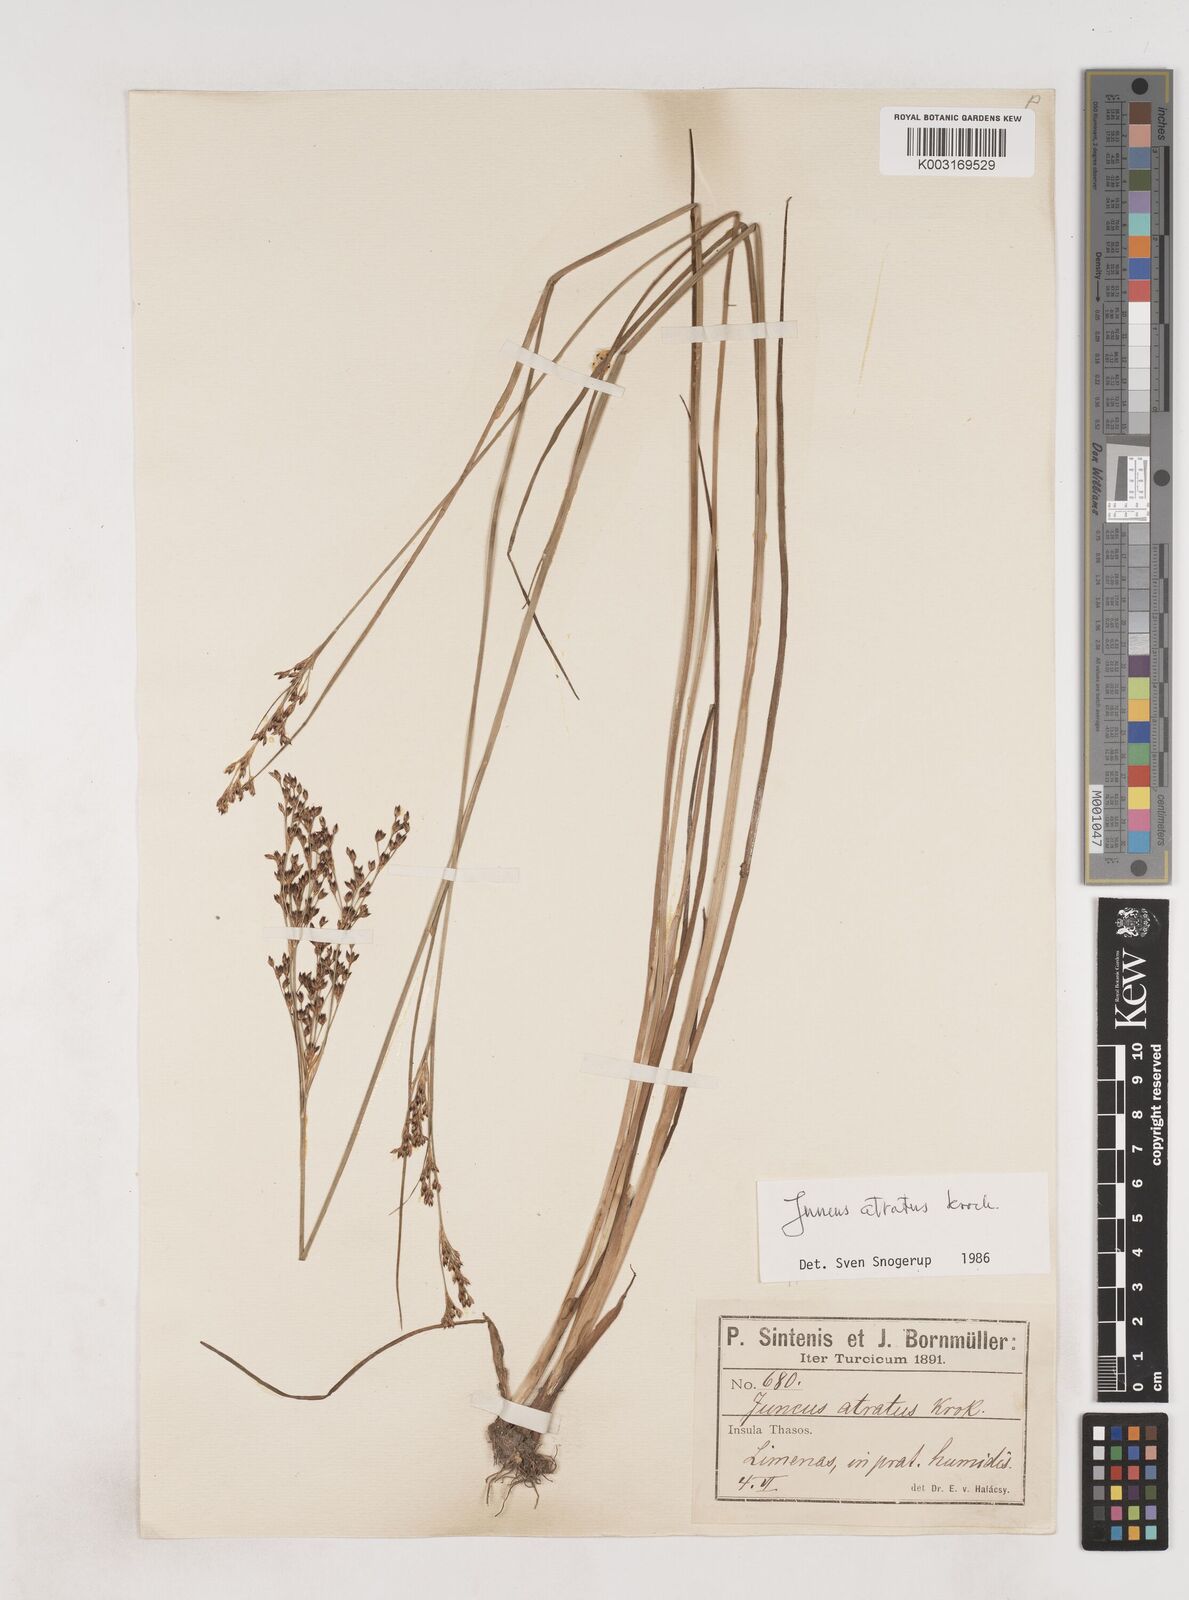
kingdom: Plantae
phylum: Tracheophyta
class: Liliopsida
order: Poales
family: Juncaceae
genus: Juncus
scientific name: Juncus atratus
